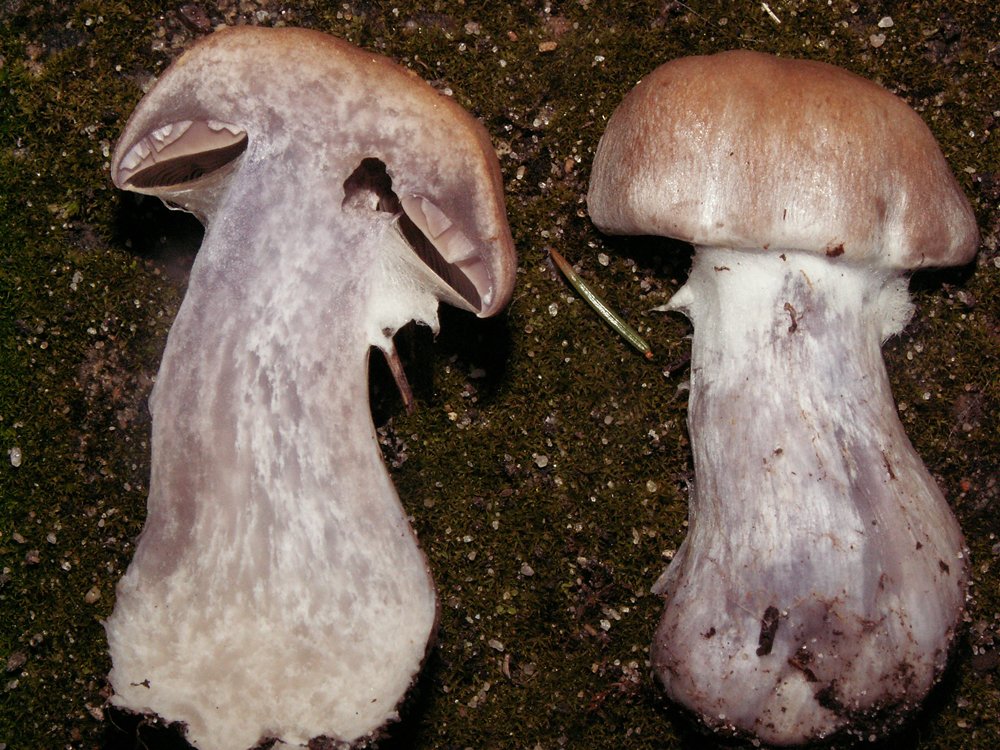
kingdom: Fungi
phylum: Basidiomycota
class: Agaricomycetes
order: Agaricales
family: Cortinariaceae
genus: Cortinarius
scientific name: Cortinarius quarciticus
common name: kvarts-slørhat
